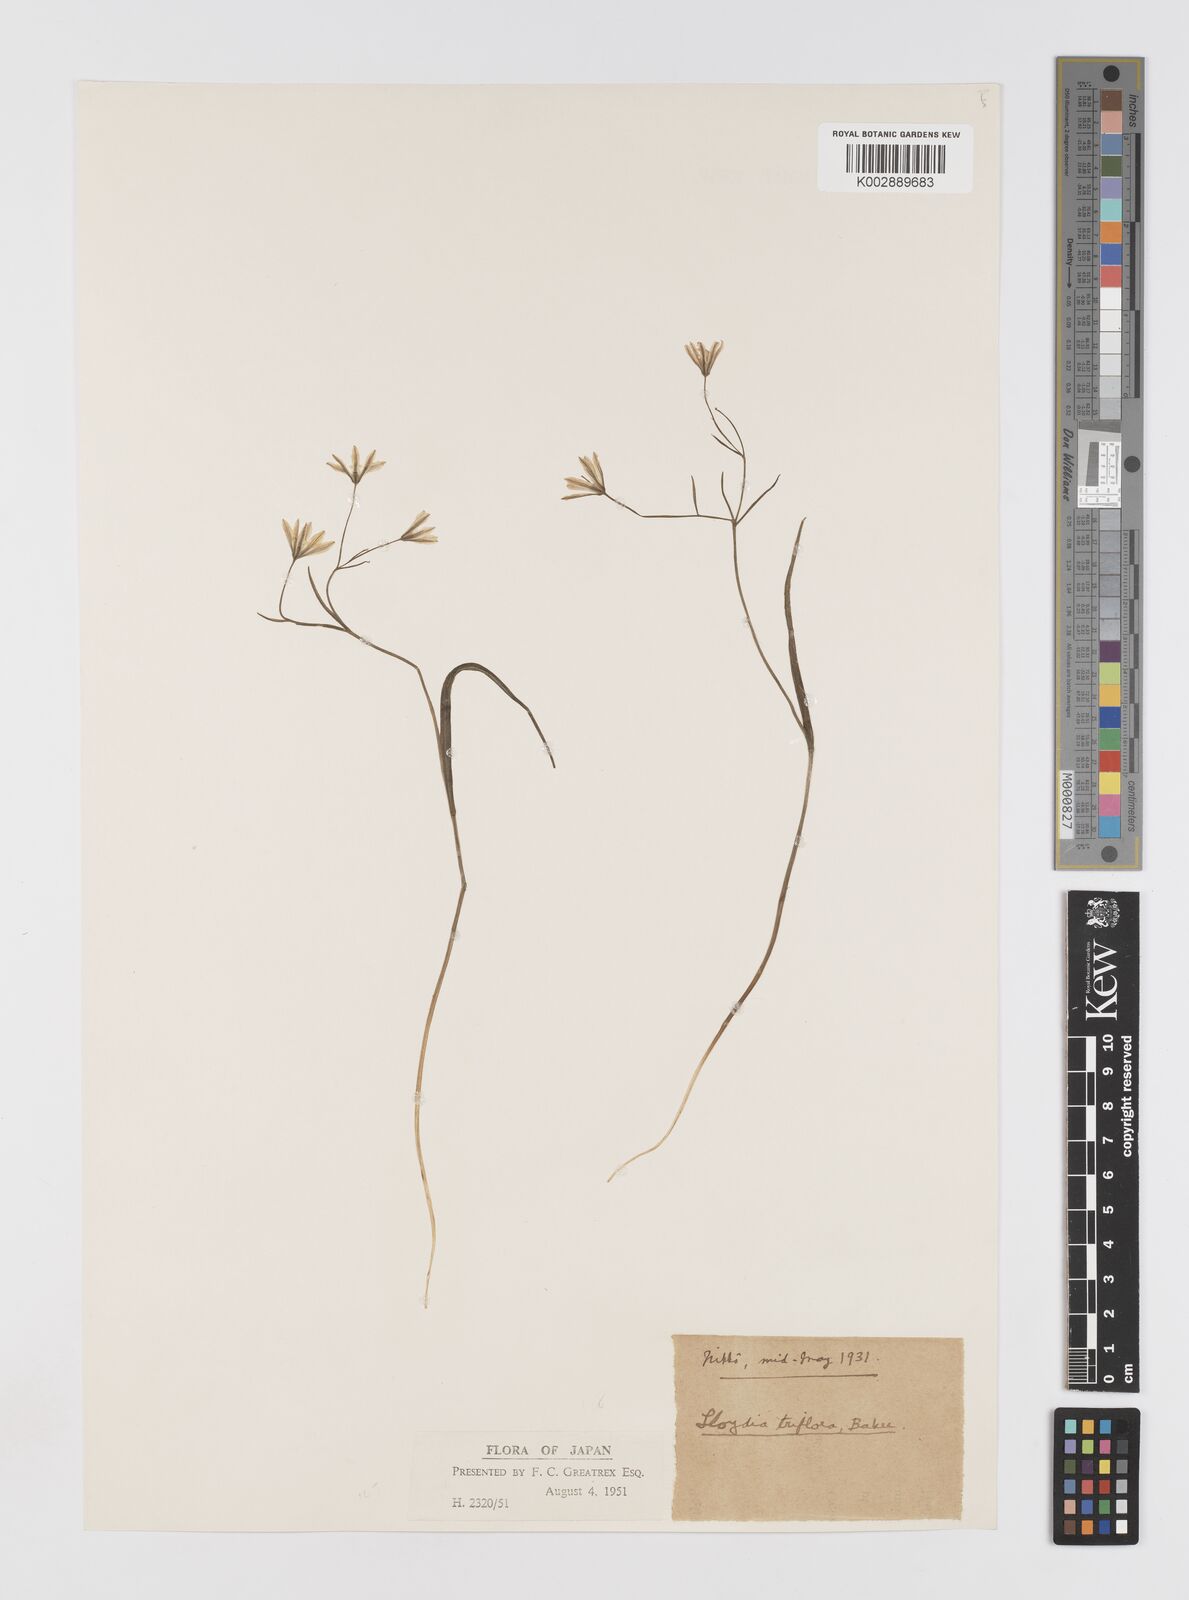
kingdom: Plantae
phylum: Tracheophyta
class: Liliopsida
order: Liliales
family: Liliaceae
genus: Gagea
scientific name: Gagea triflora
